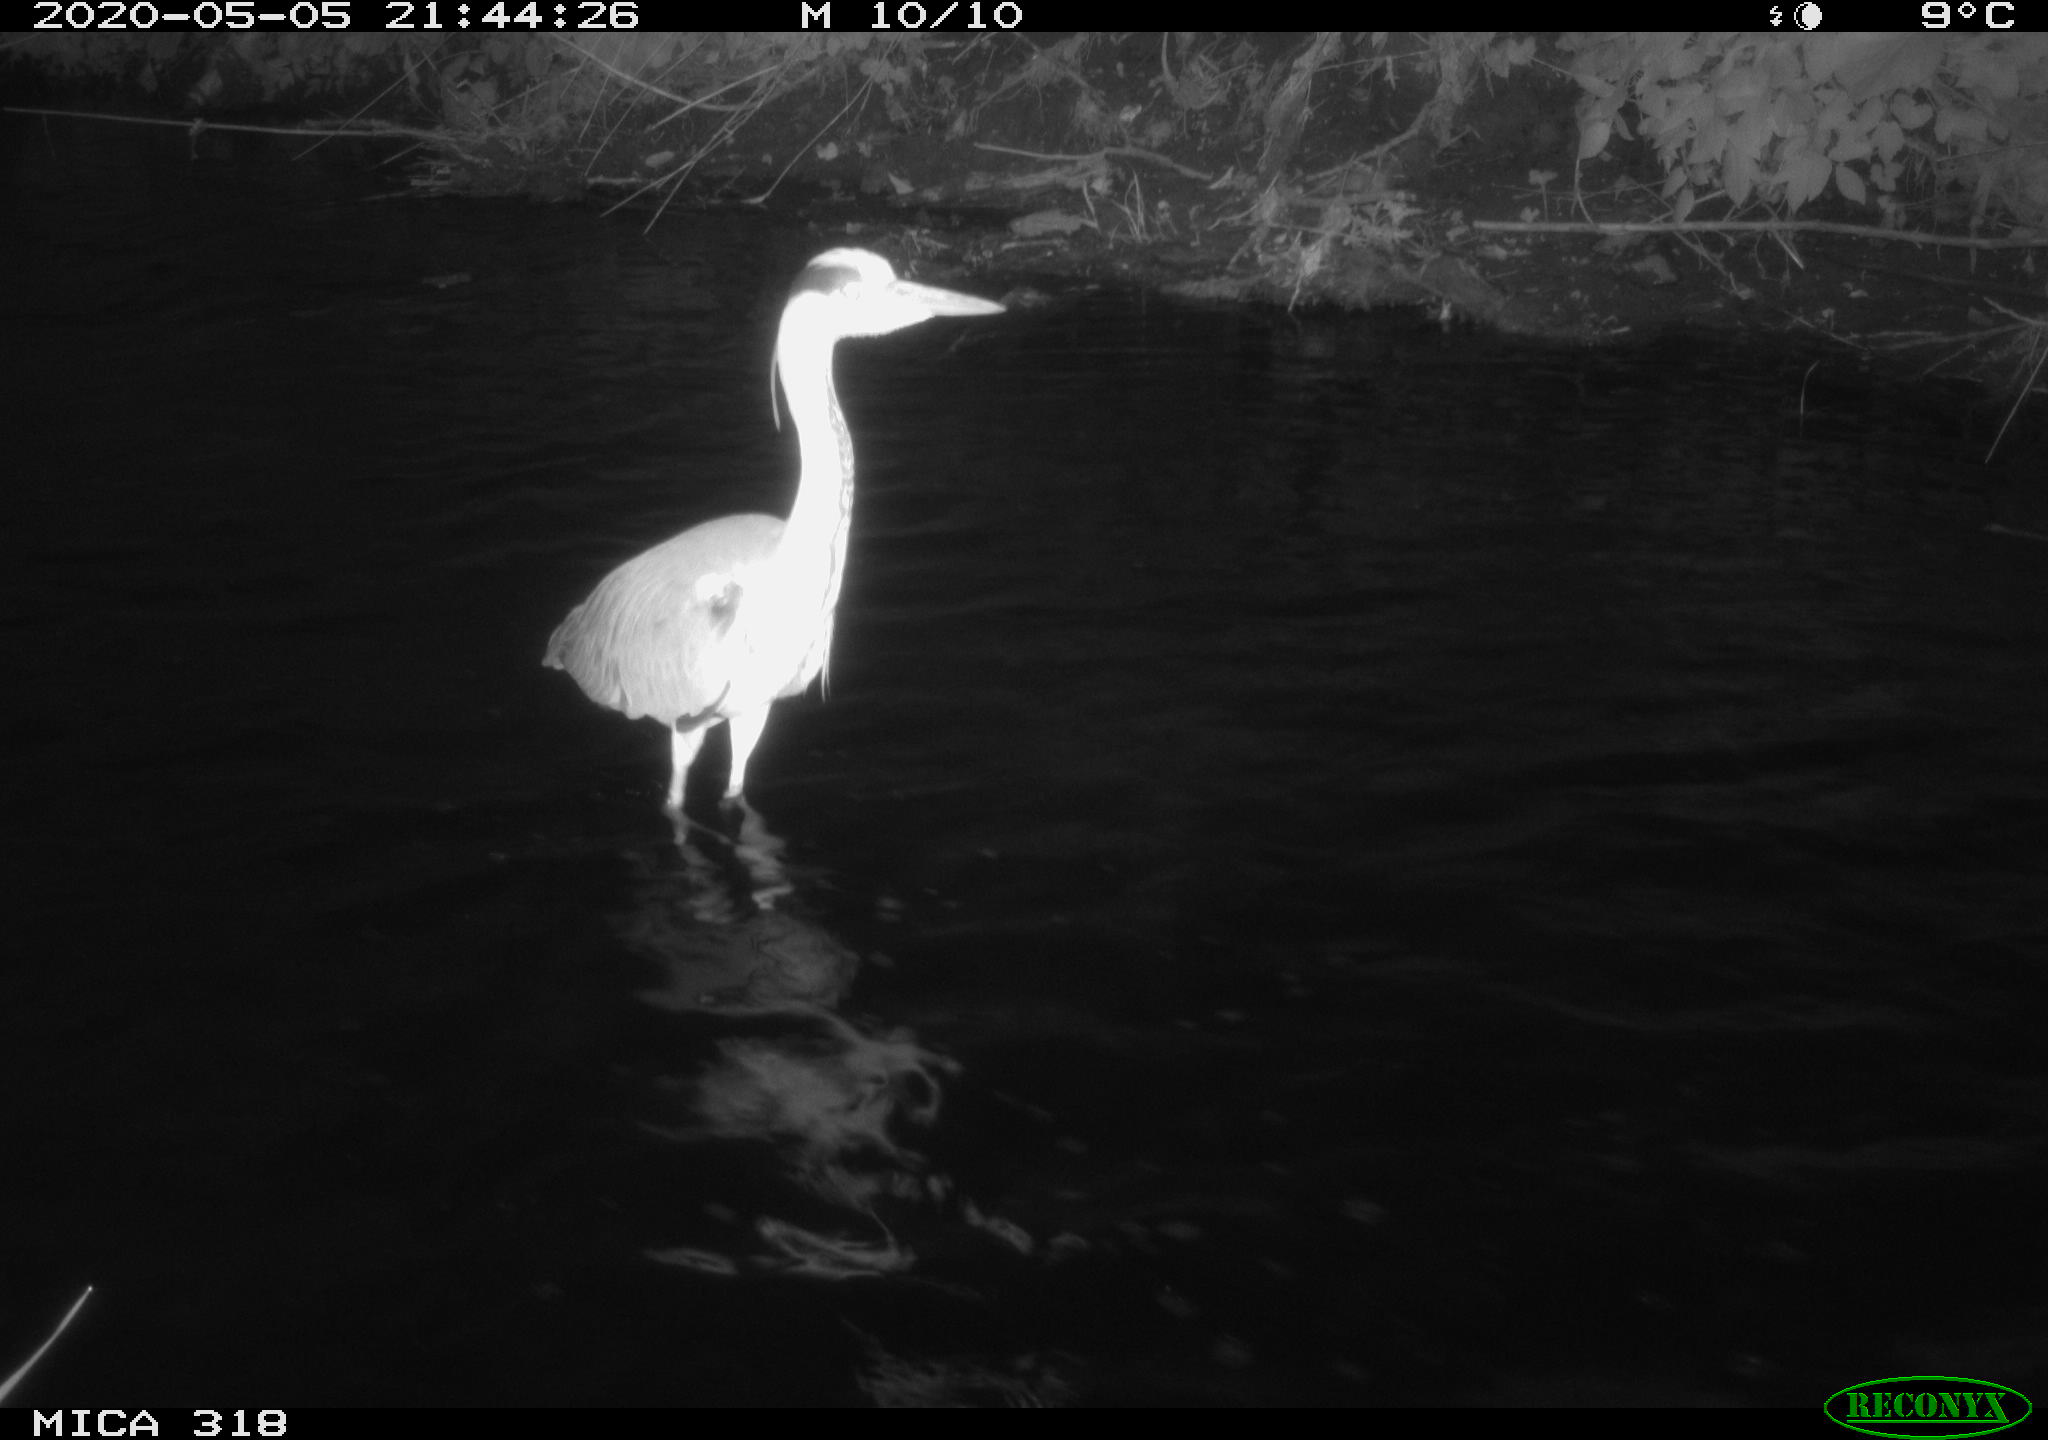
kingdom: Animalia
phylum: Chordata
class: Aves
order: Anseriformes
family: Anatidae
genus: Anas
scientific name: Anas platyrhynchos
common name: Mallard
